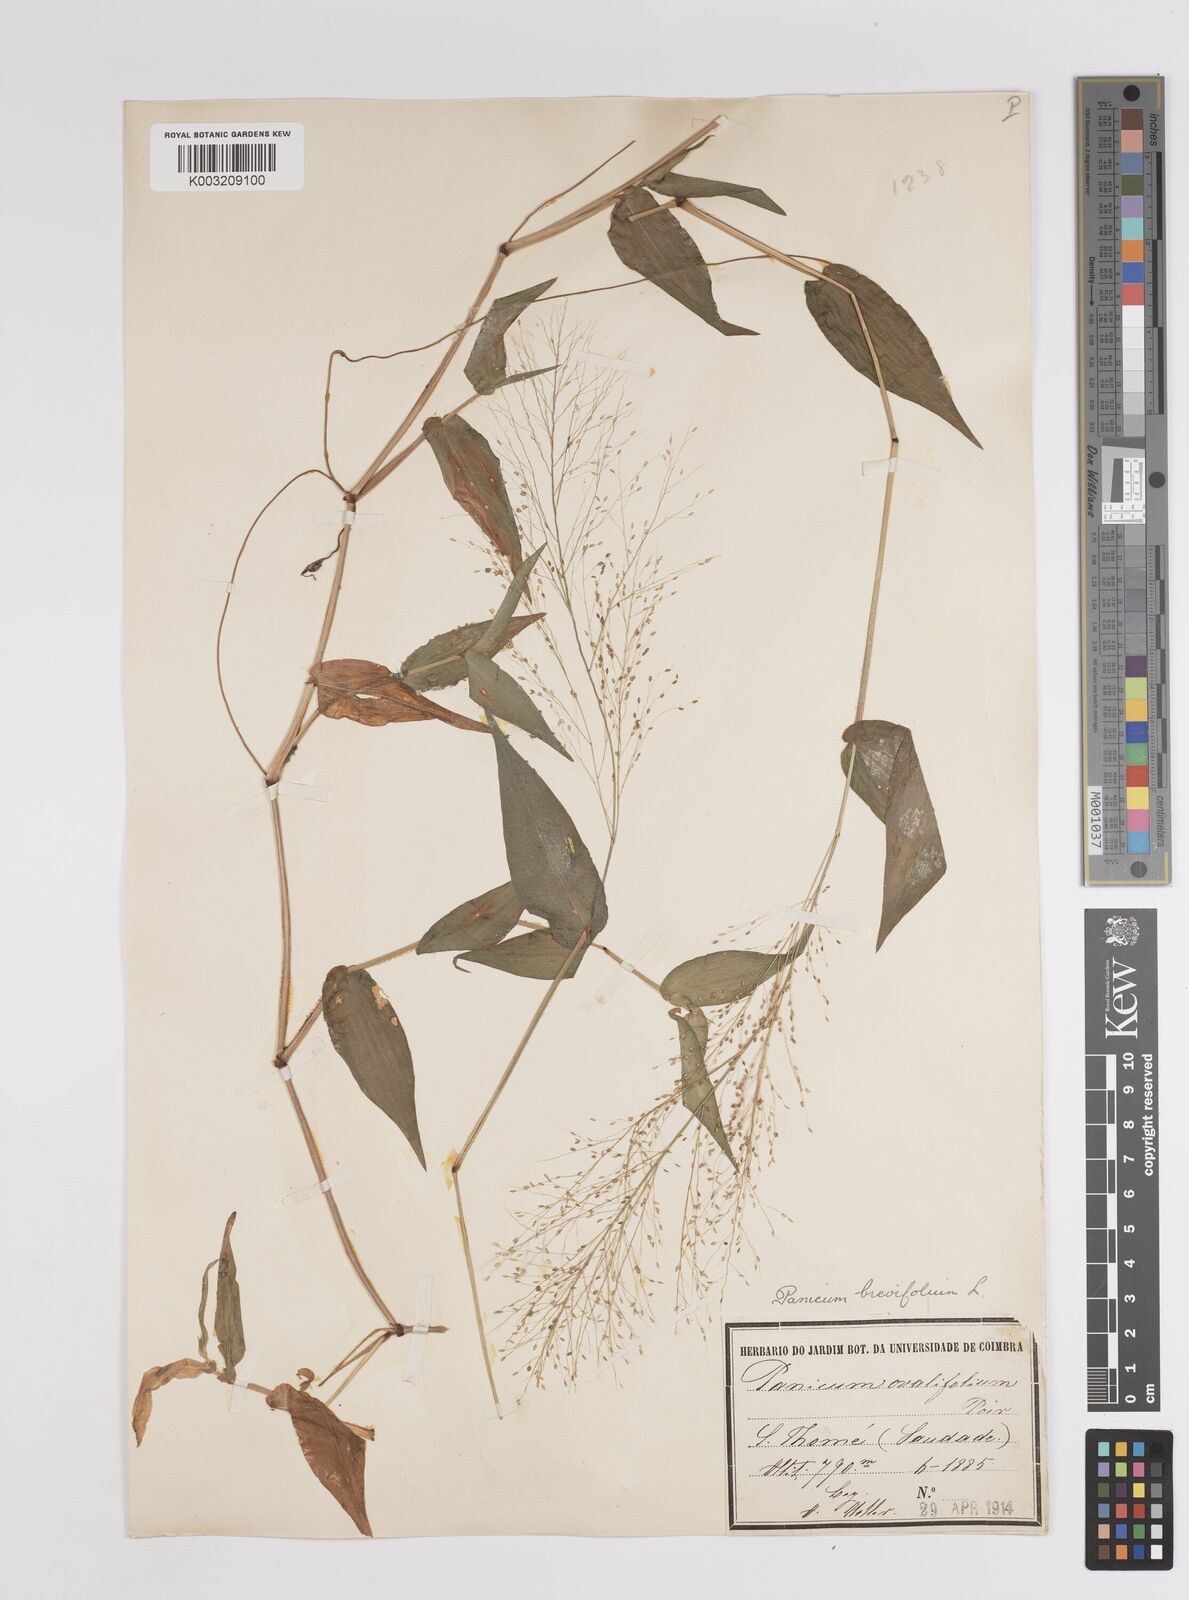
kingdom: Plantae
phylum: Tracheophyta
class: Liliopsida
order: Poales
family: Poaceae
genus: Panicum
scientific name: Panicum brevifolium
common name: Shortleaf panic grass
